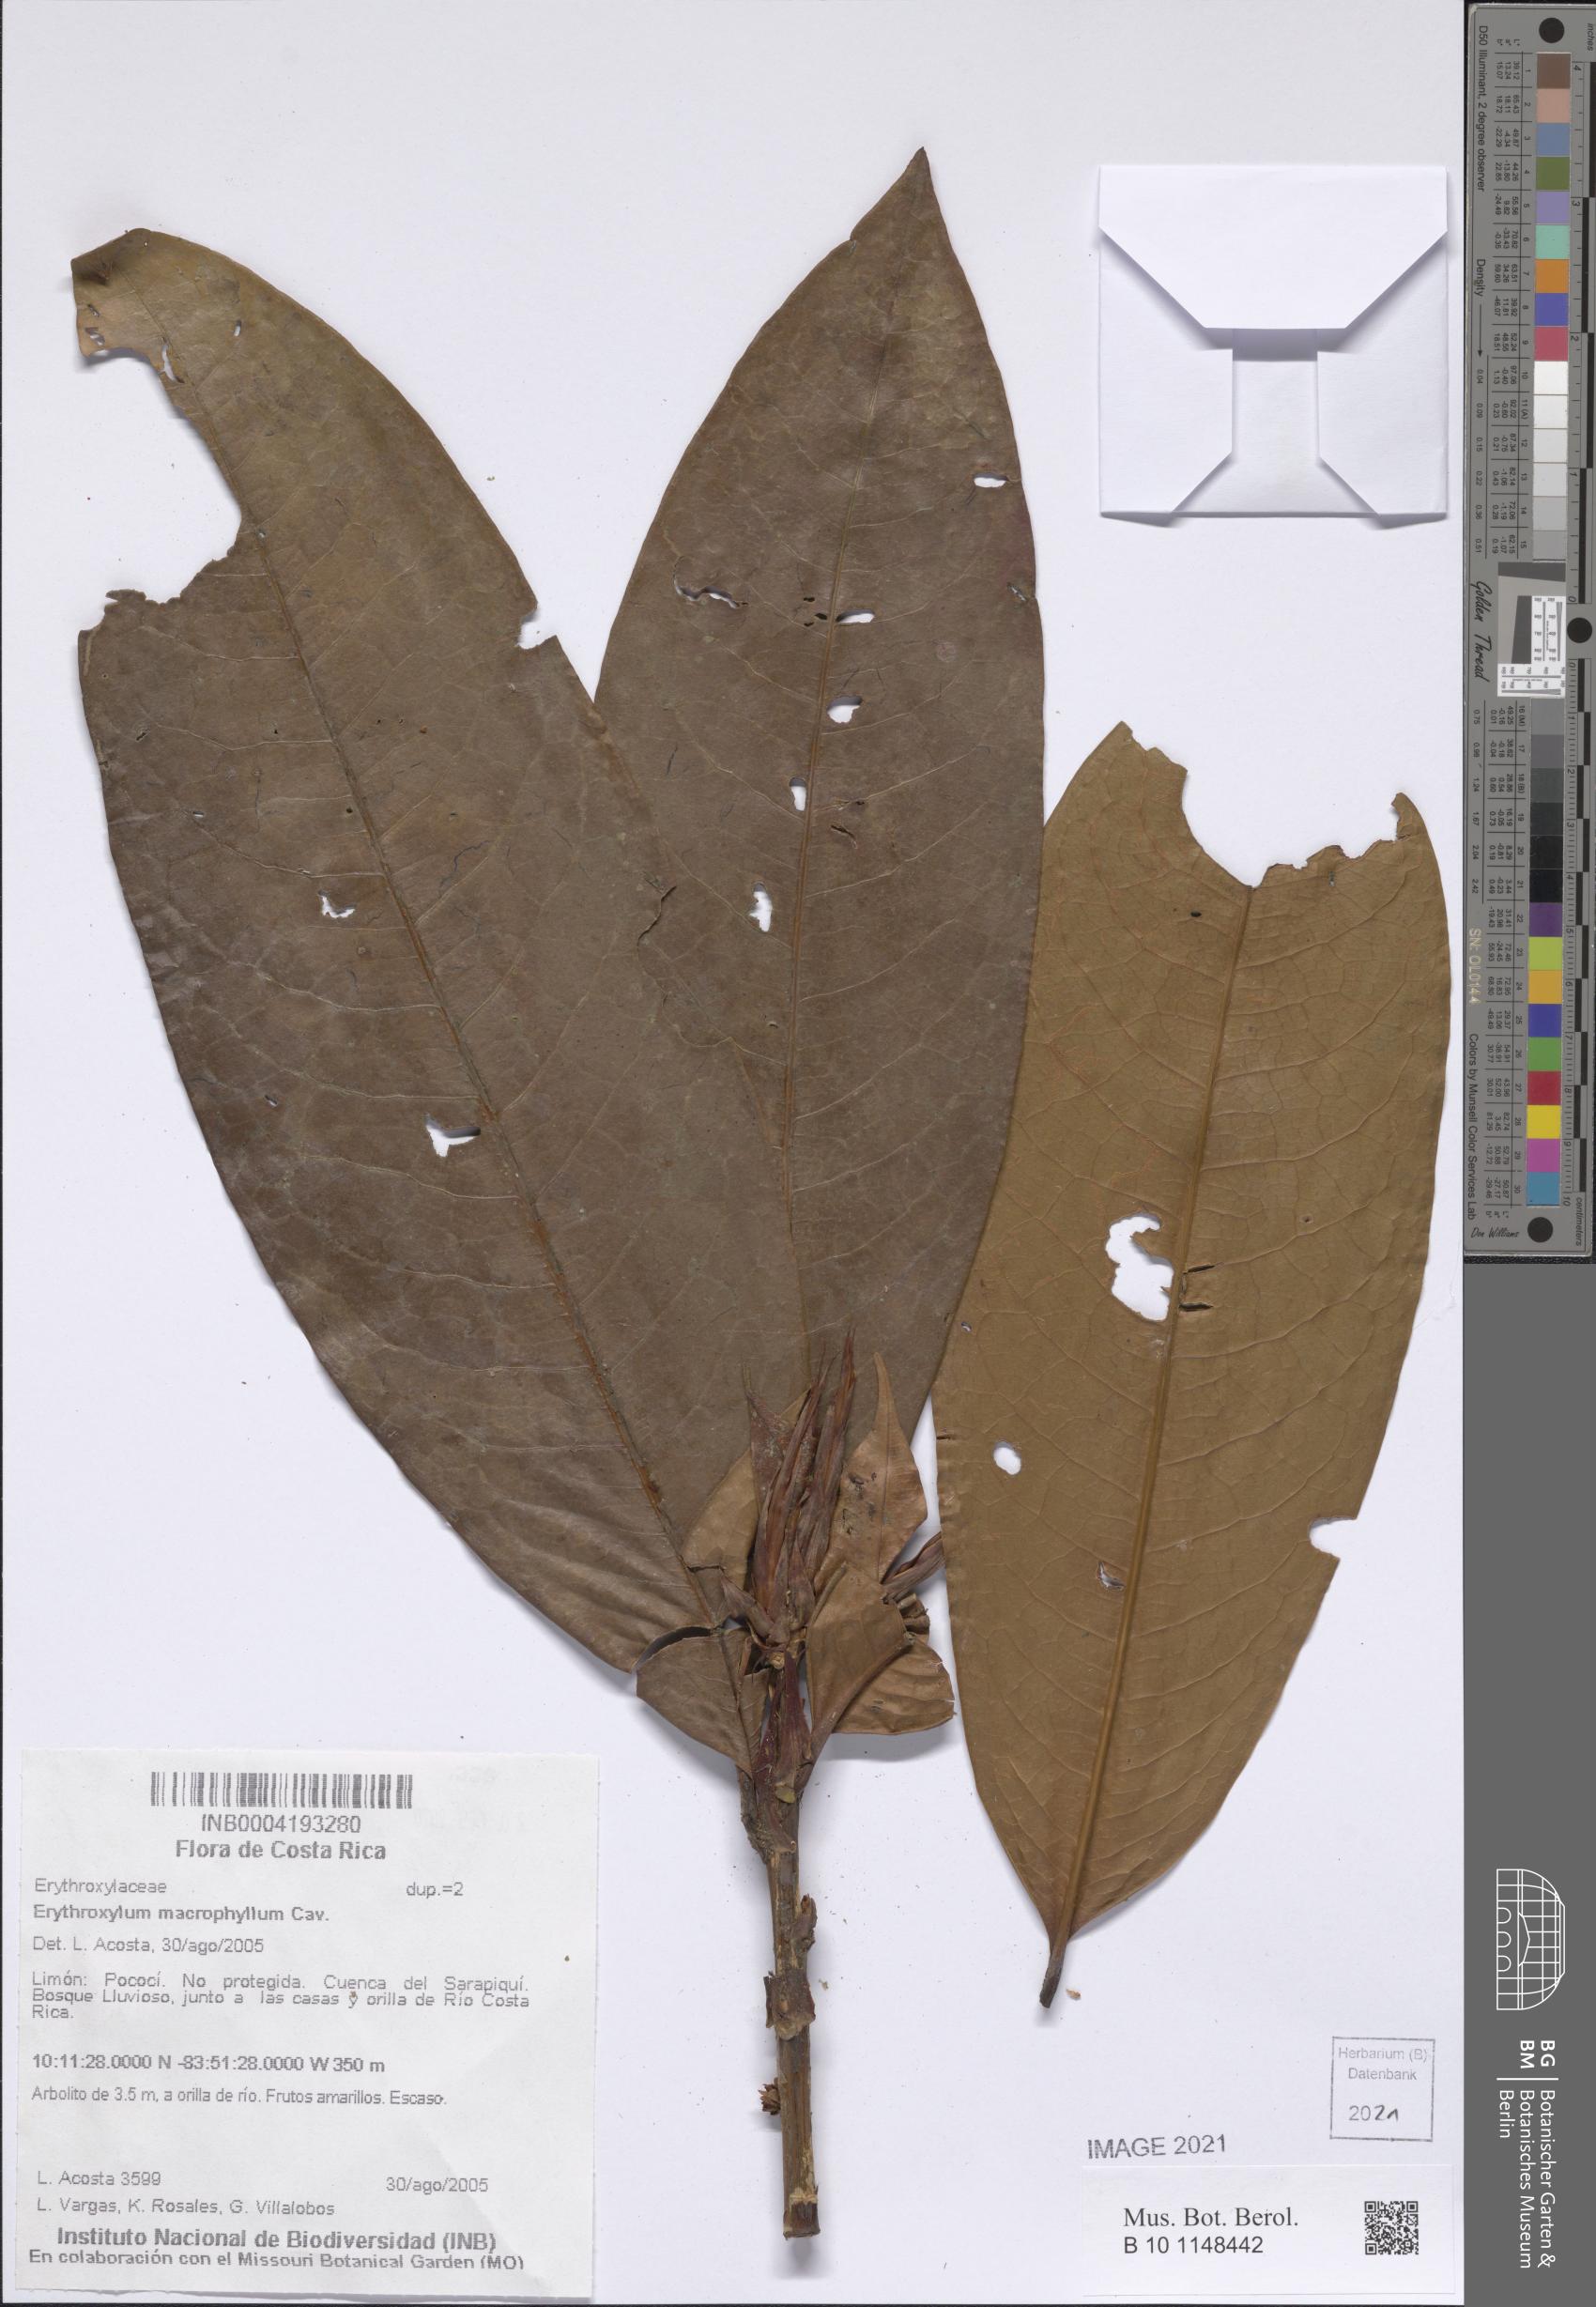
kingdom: Plantae
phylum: Tracheophyta
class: Magnoliopsida
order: Malpighiales
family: Erythroxylaceae
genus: Erythroxylum
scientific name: Erythroxylum macrophyllum
